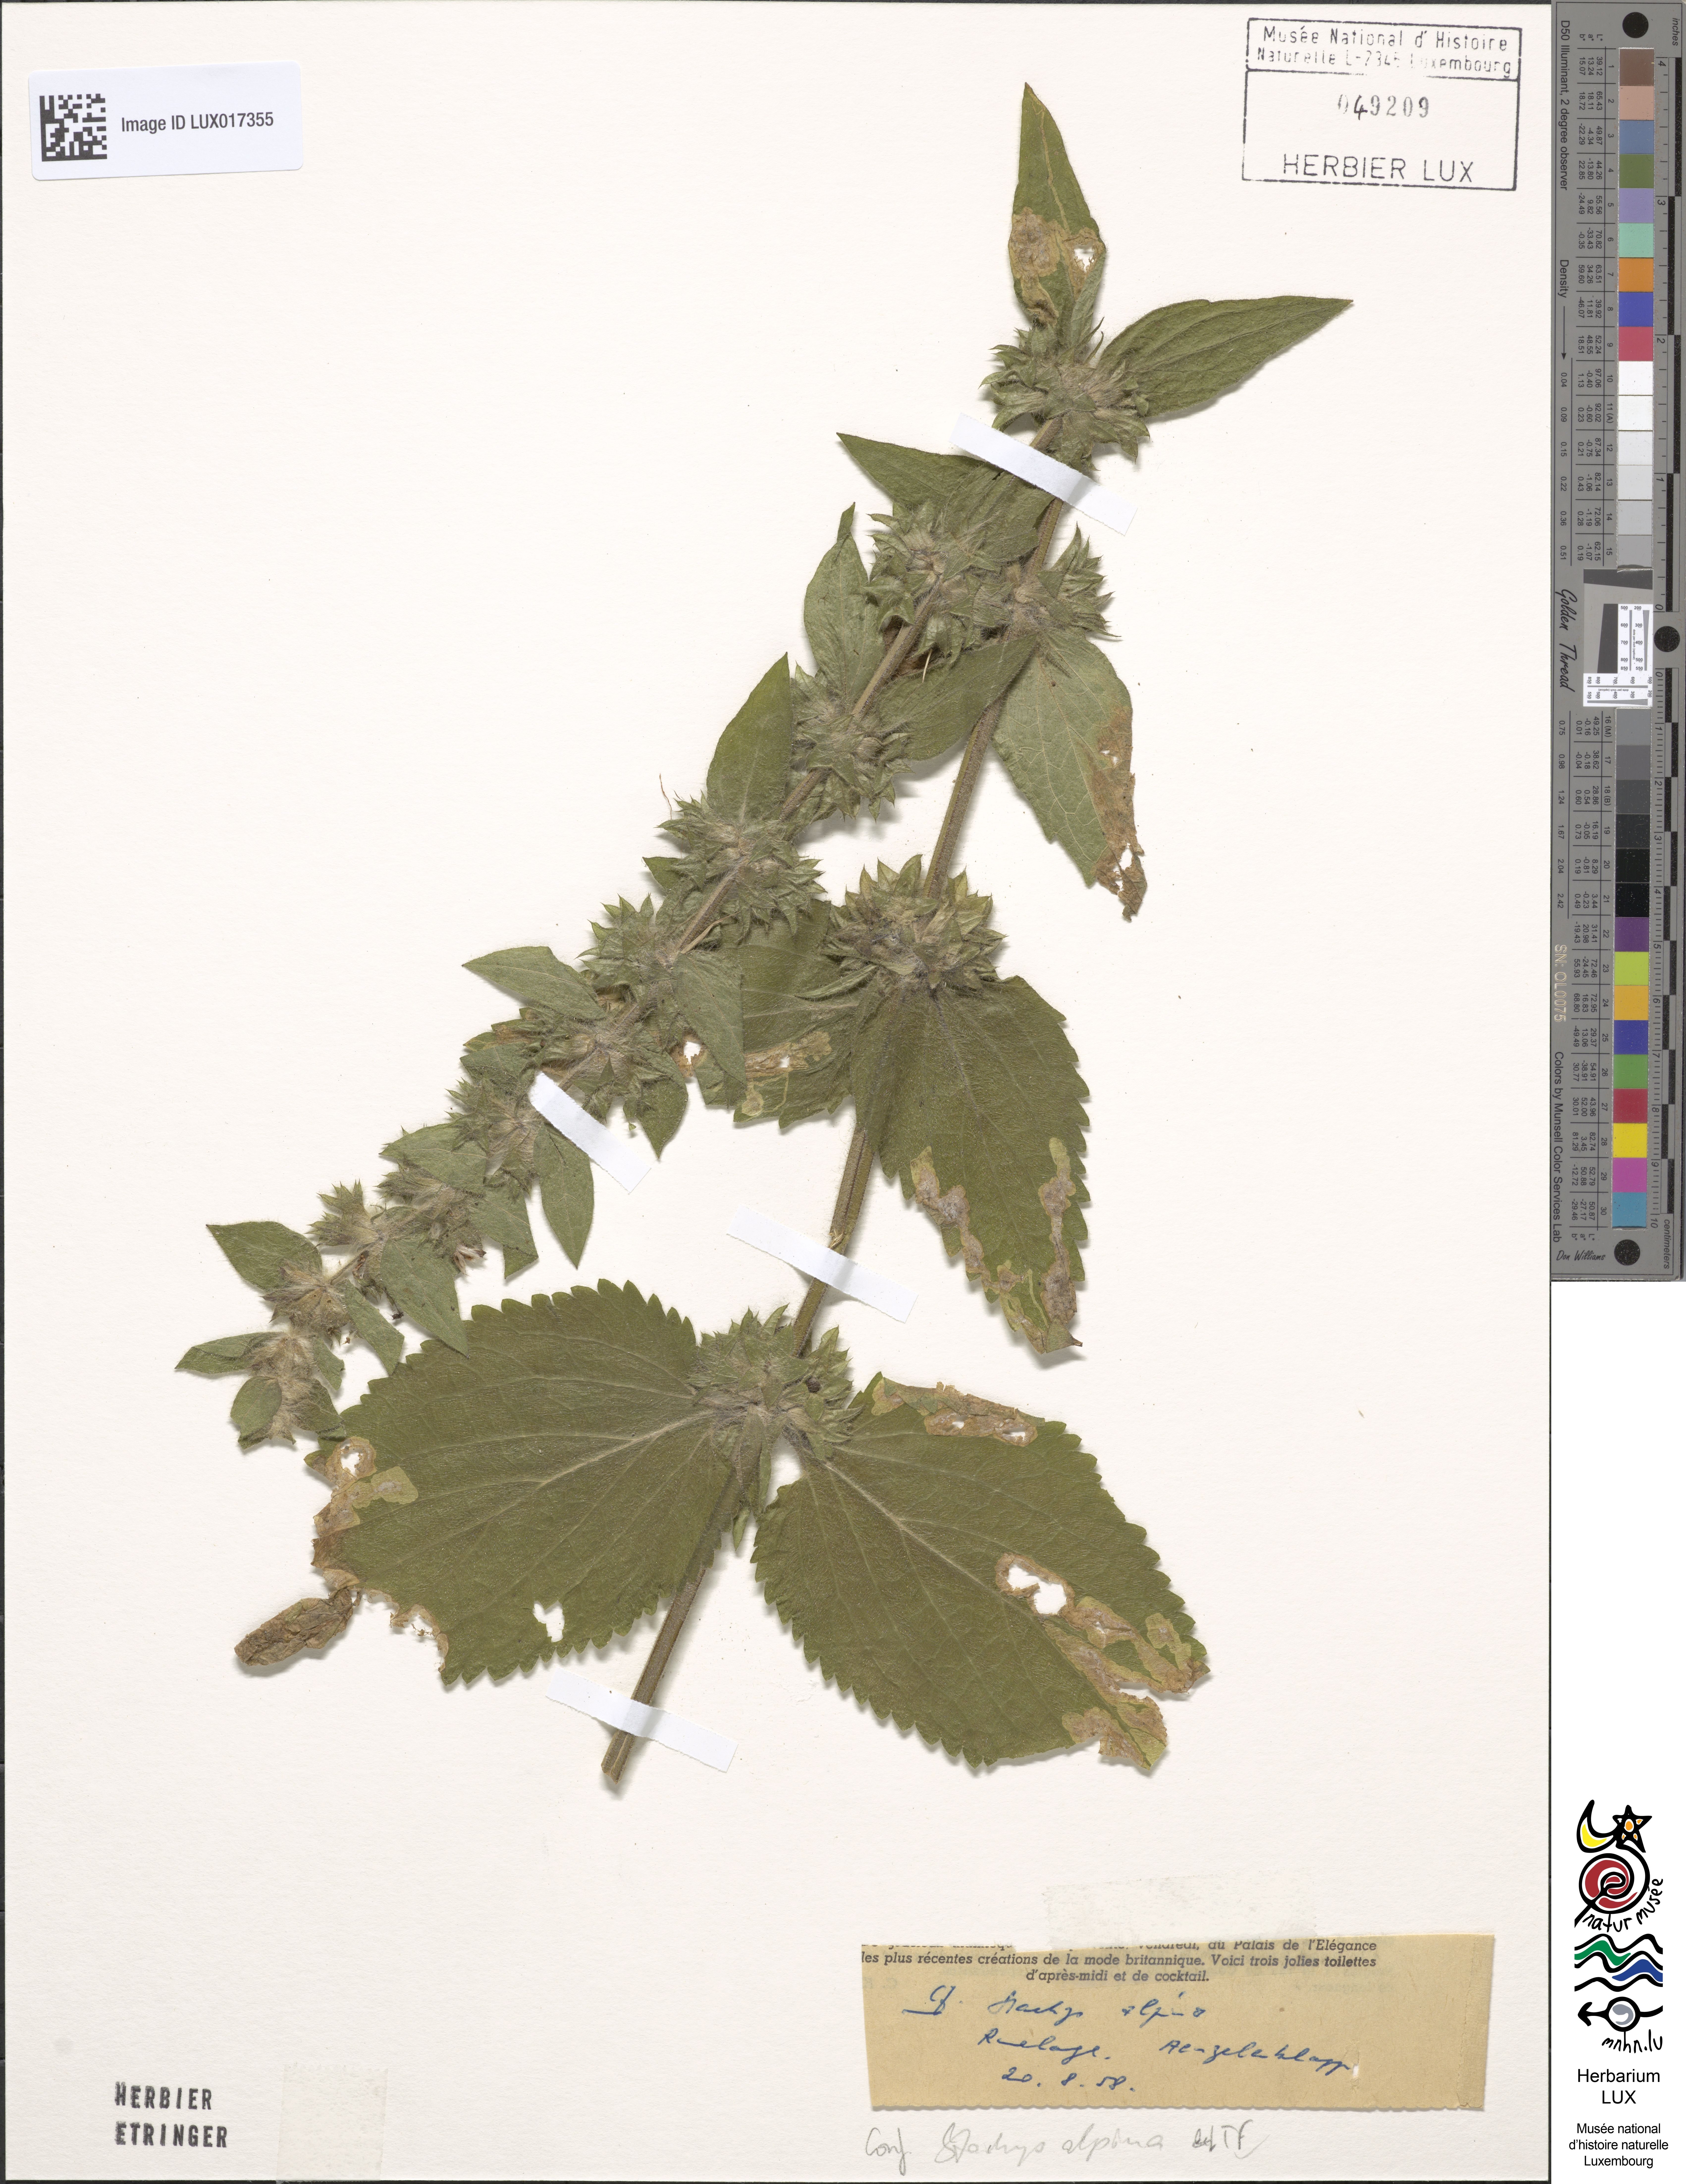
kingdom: Plantae
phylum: Tracheophyta
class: Magnoliopsida
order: Lamiales
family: Lamiaceae
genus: Stachys
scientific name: Stachys alpina
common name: Limestone woundwort
